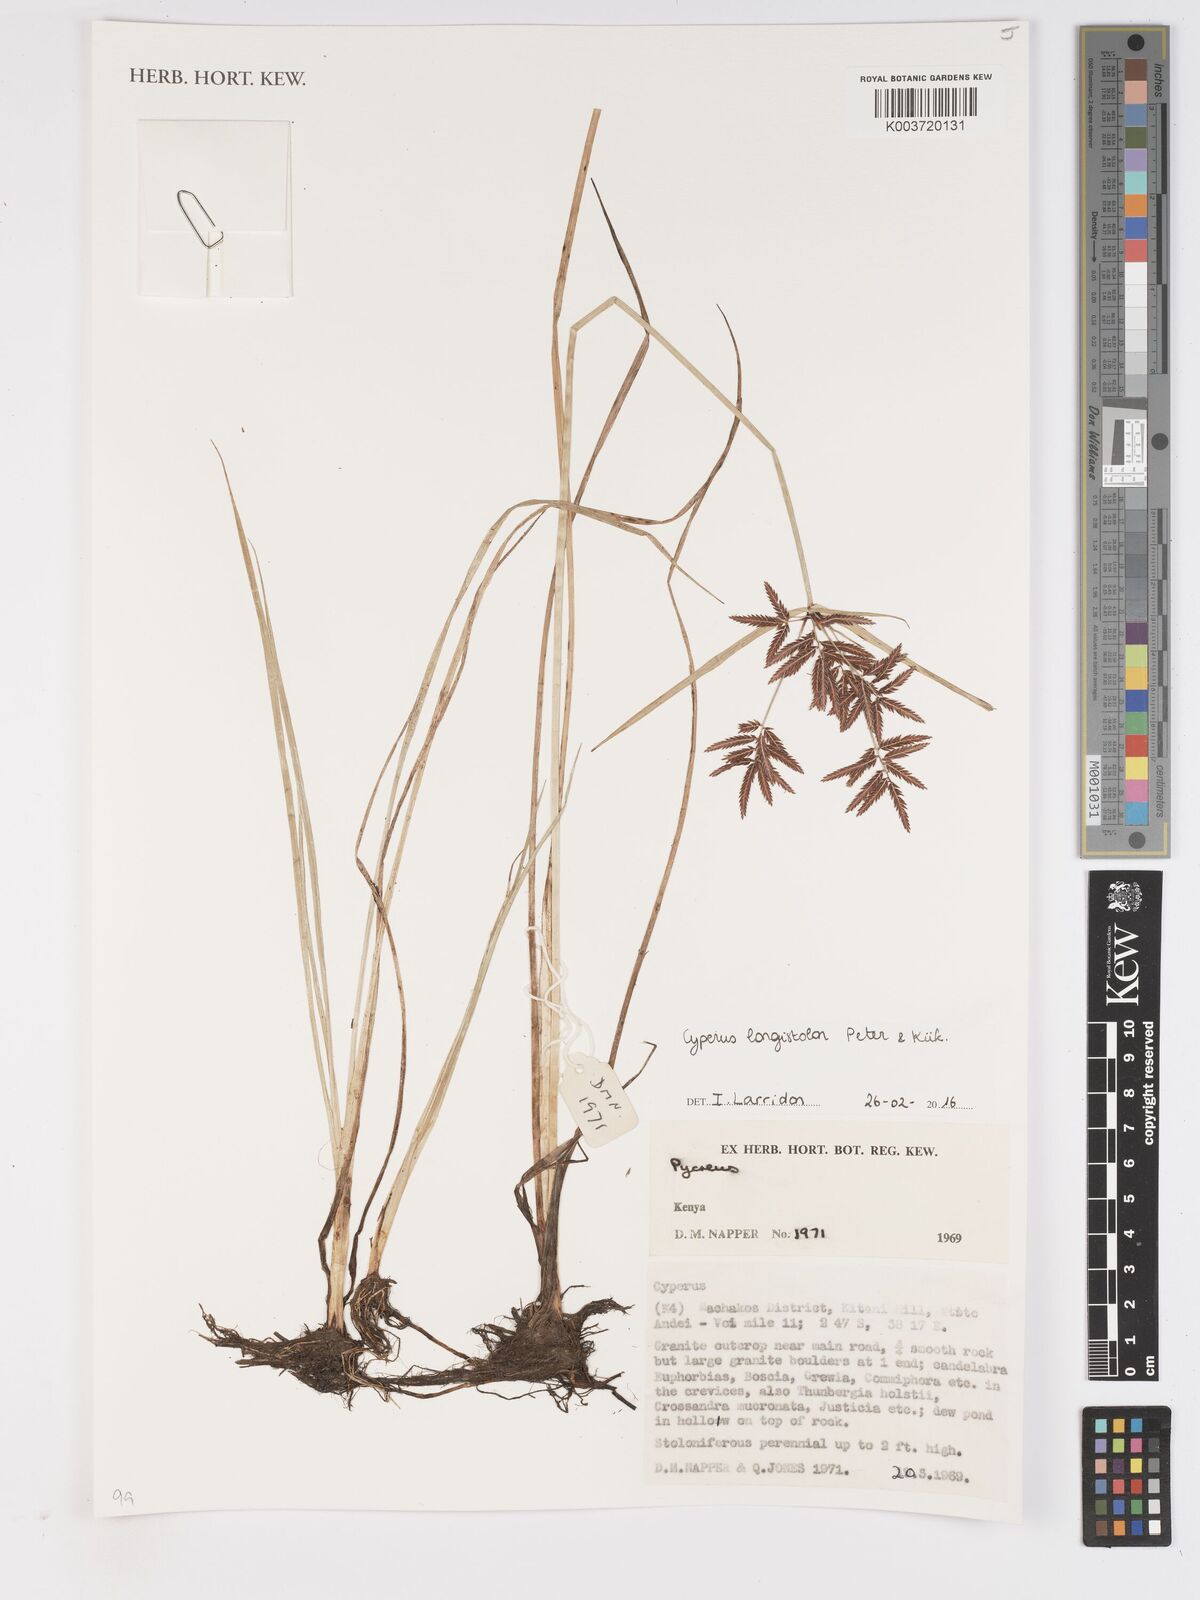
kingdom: Plantae
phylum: Tracheophyta
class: Liliopsida
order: Poales
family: Cyperaceae
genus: Cyperus
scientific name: Cyperus chrysanthus
